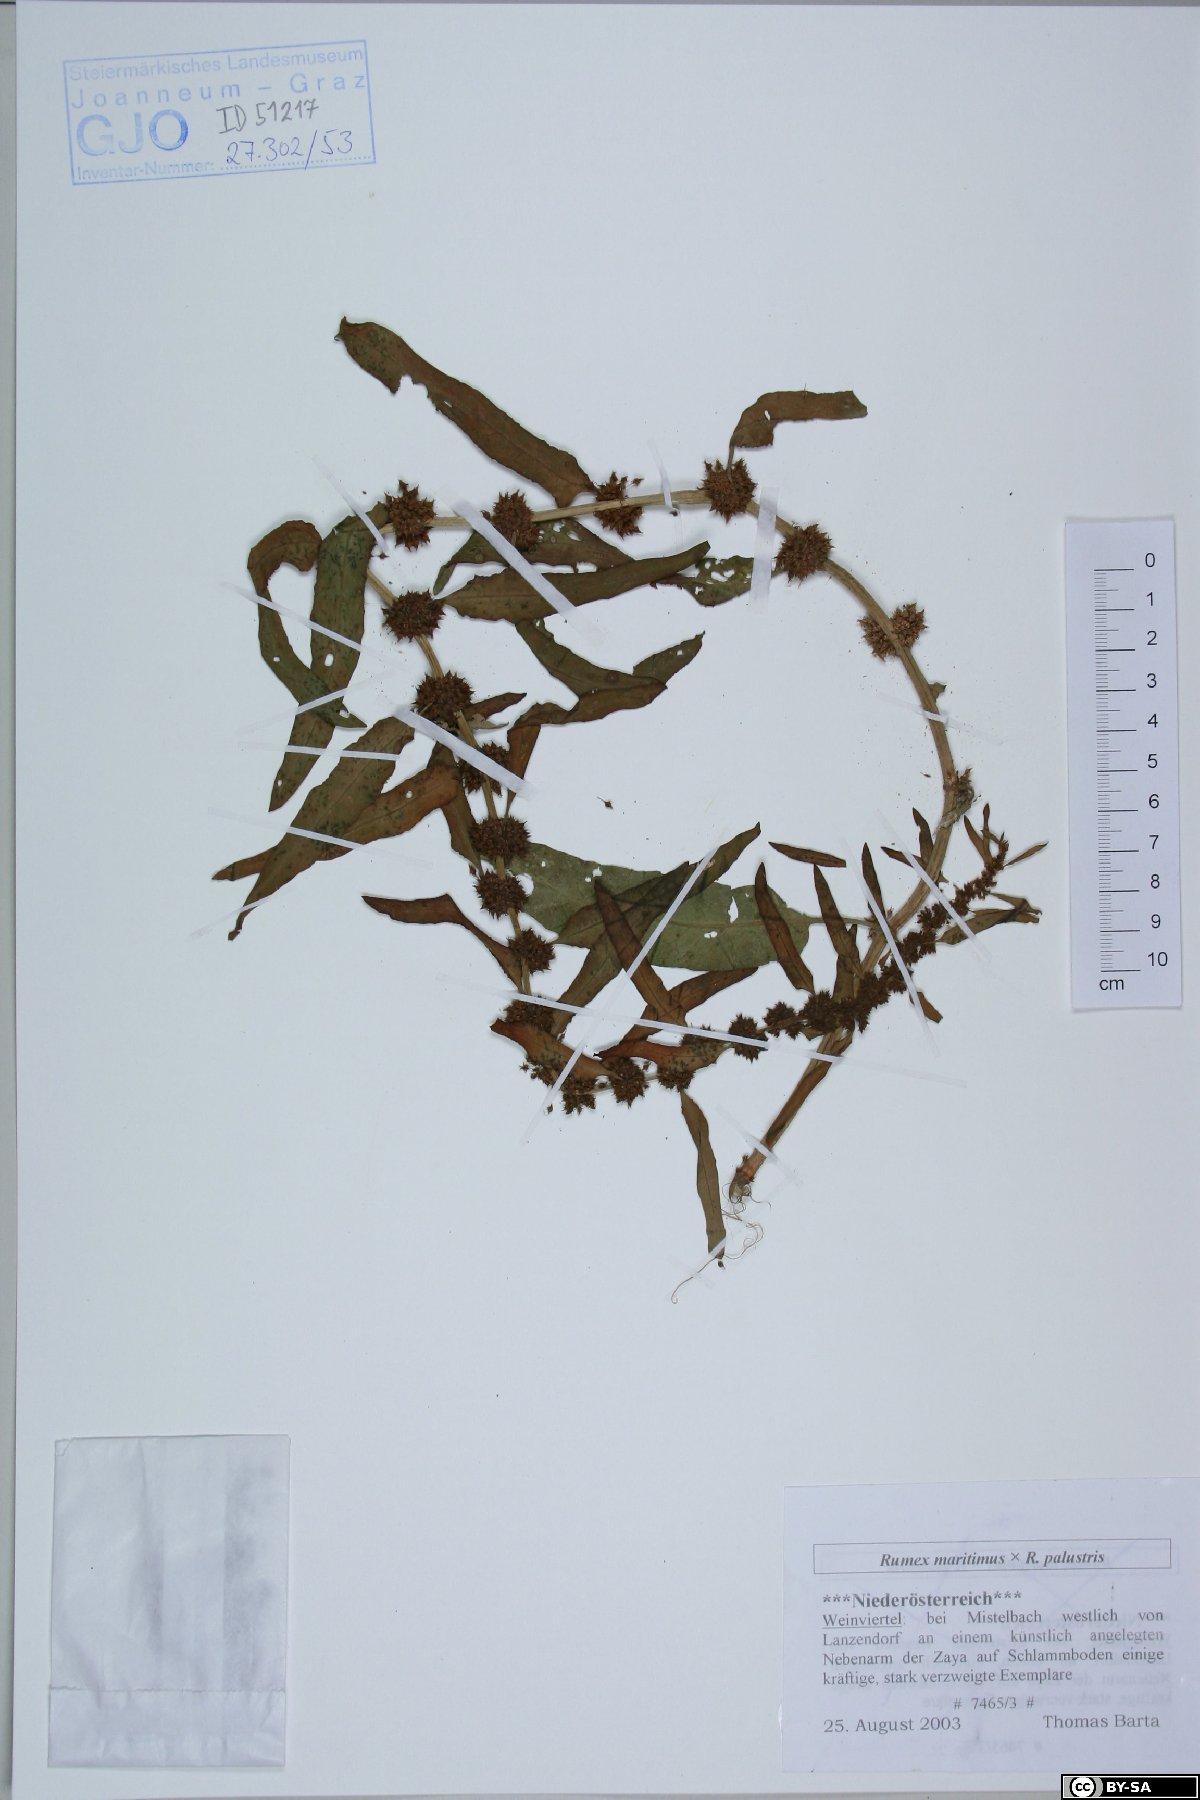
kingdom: Plantae
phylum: Tracheophyta
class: Magnoliopsida
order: Caryophyllales
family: Polygonaceae
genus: Rumex
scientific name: Rumex maritimus
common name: Golden dock
